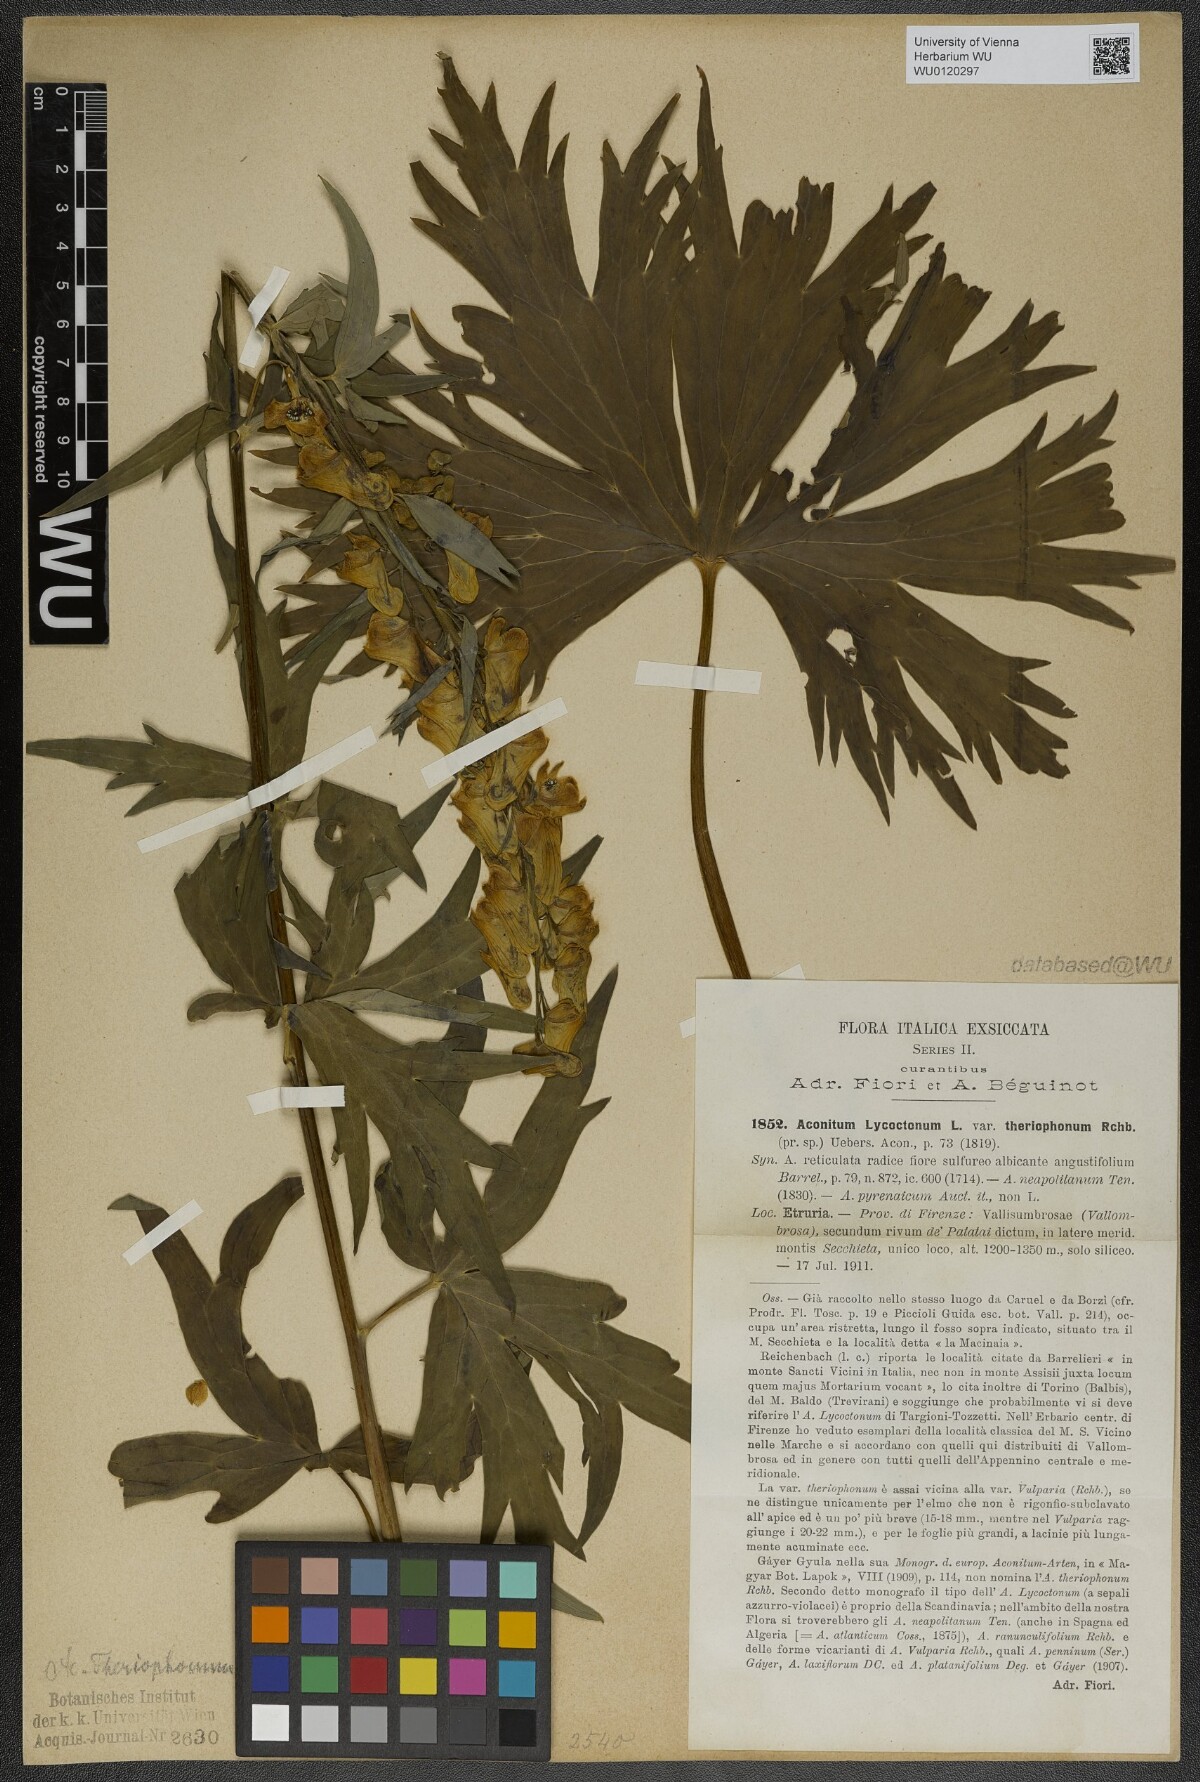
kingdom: Plantae
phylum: Tracheophyta
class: Magnoliopsida
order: Ranunculales
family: Ranunculaceae
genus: Aconitum
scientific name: Aconitum lycoctonum
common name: Wolf's-bane
